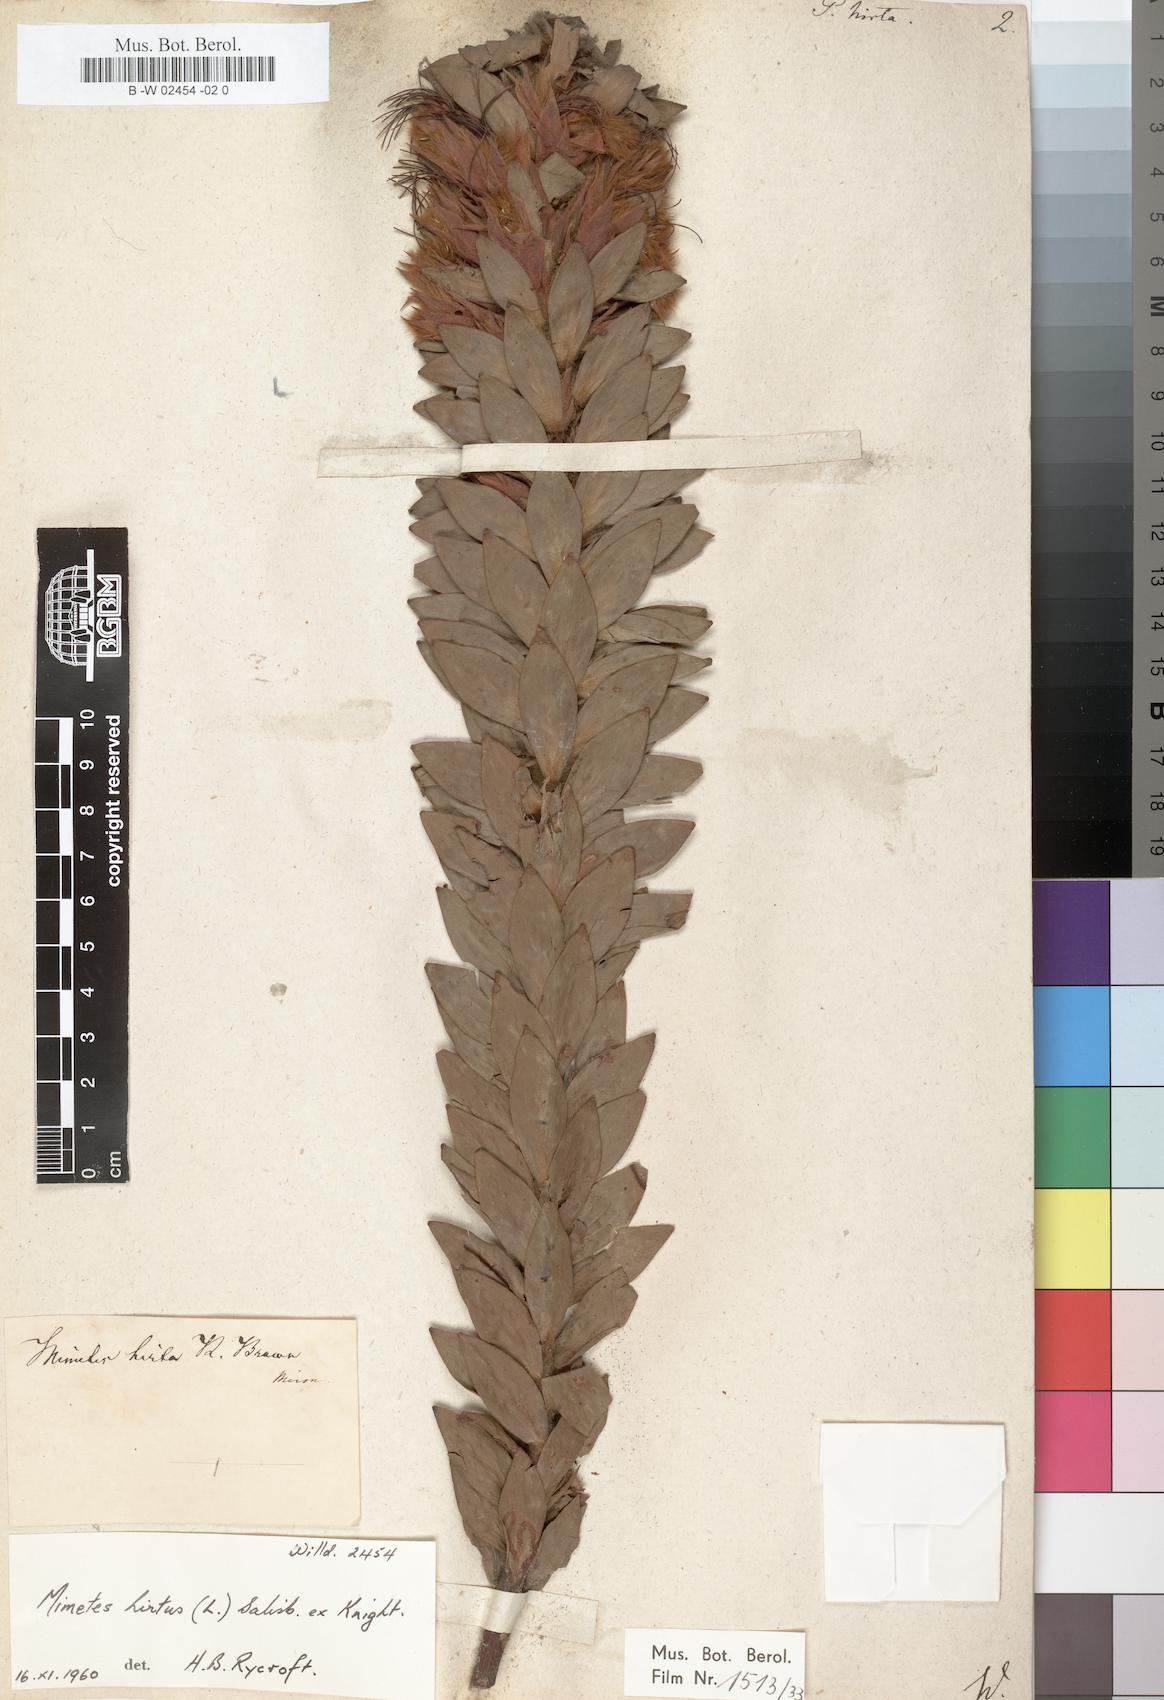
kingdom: Plantae
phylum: Tracheophyta
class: Magnoliopsida
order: Proteales
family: Proteaceae
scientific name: Proteaceae
